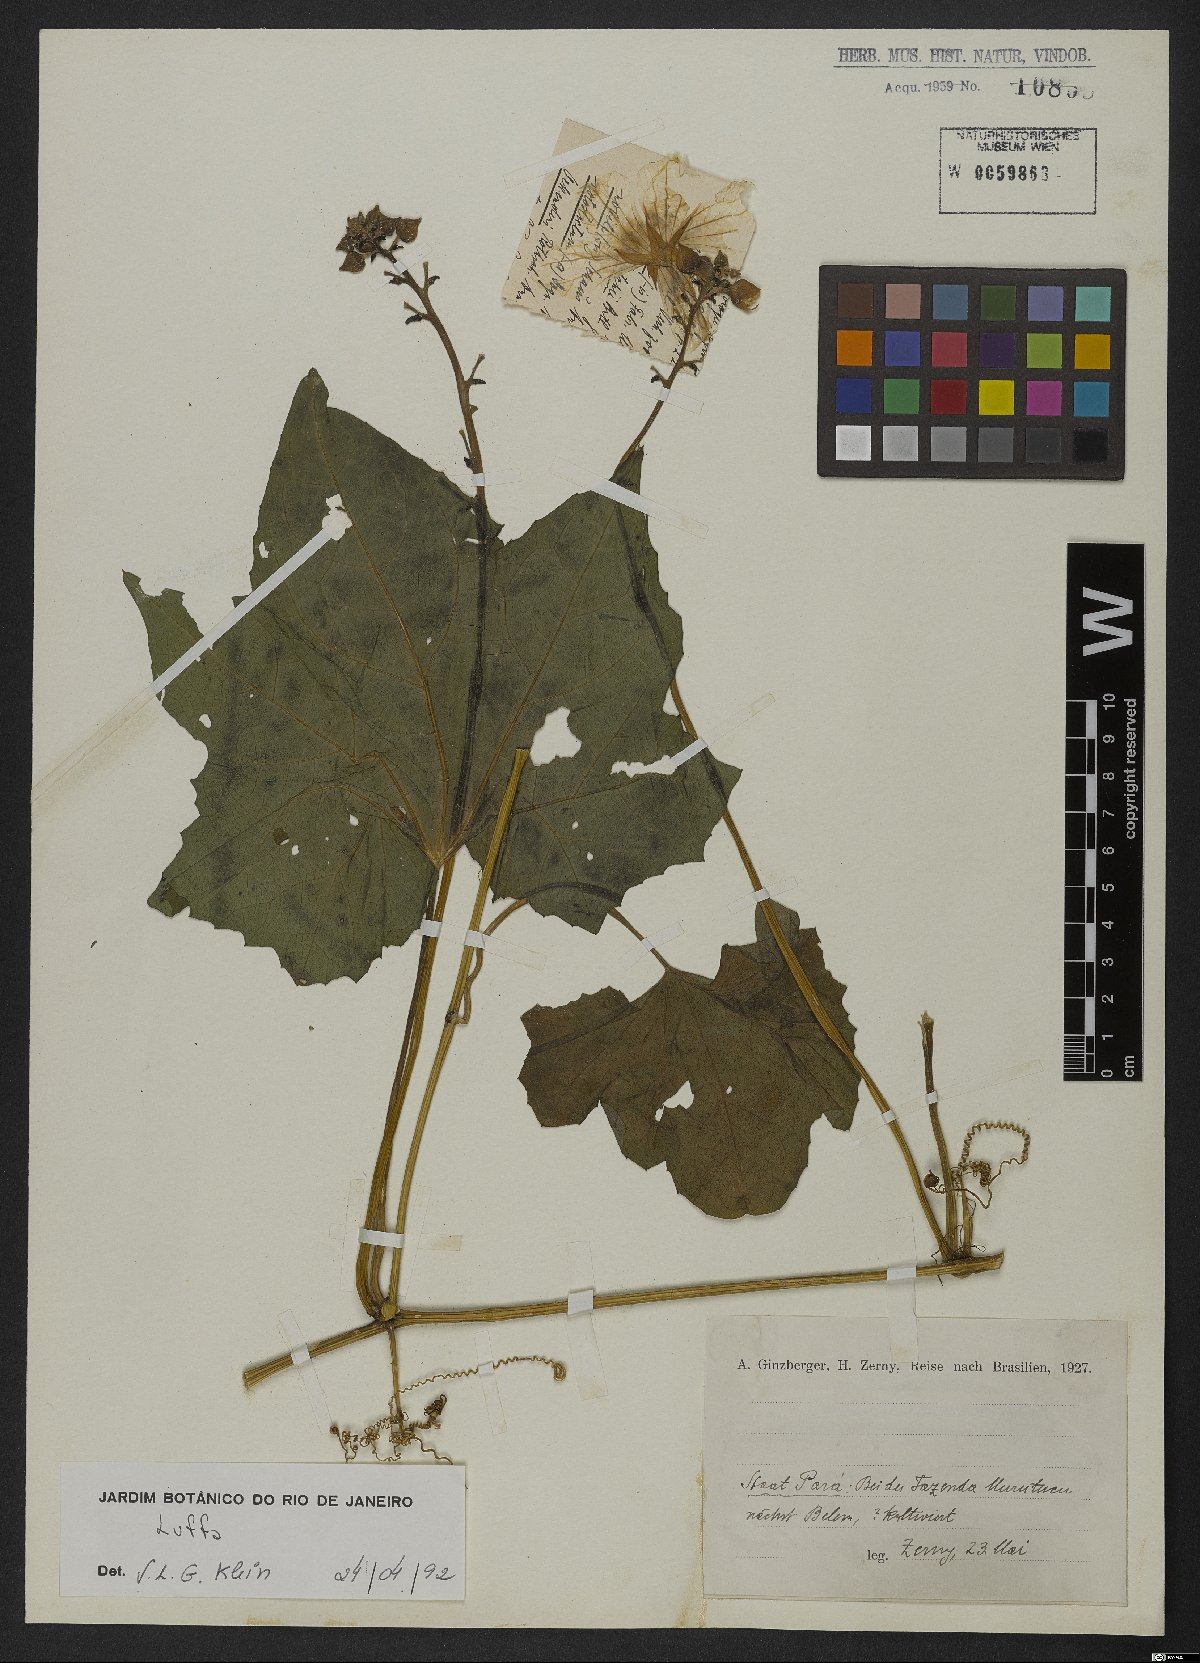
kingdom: Plantae
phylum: Tracheophyta
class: Magnoliopsida
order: Cucurbitales
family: Cucurbitaceae
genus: Luffa
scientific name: Luffa
